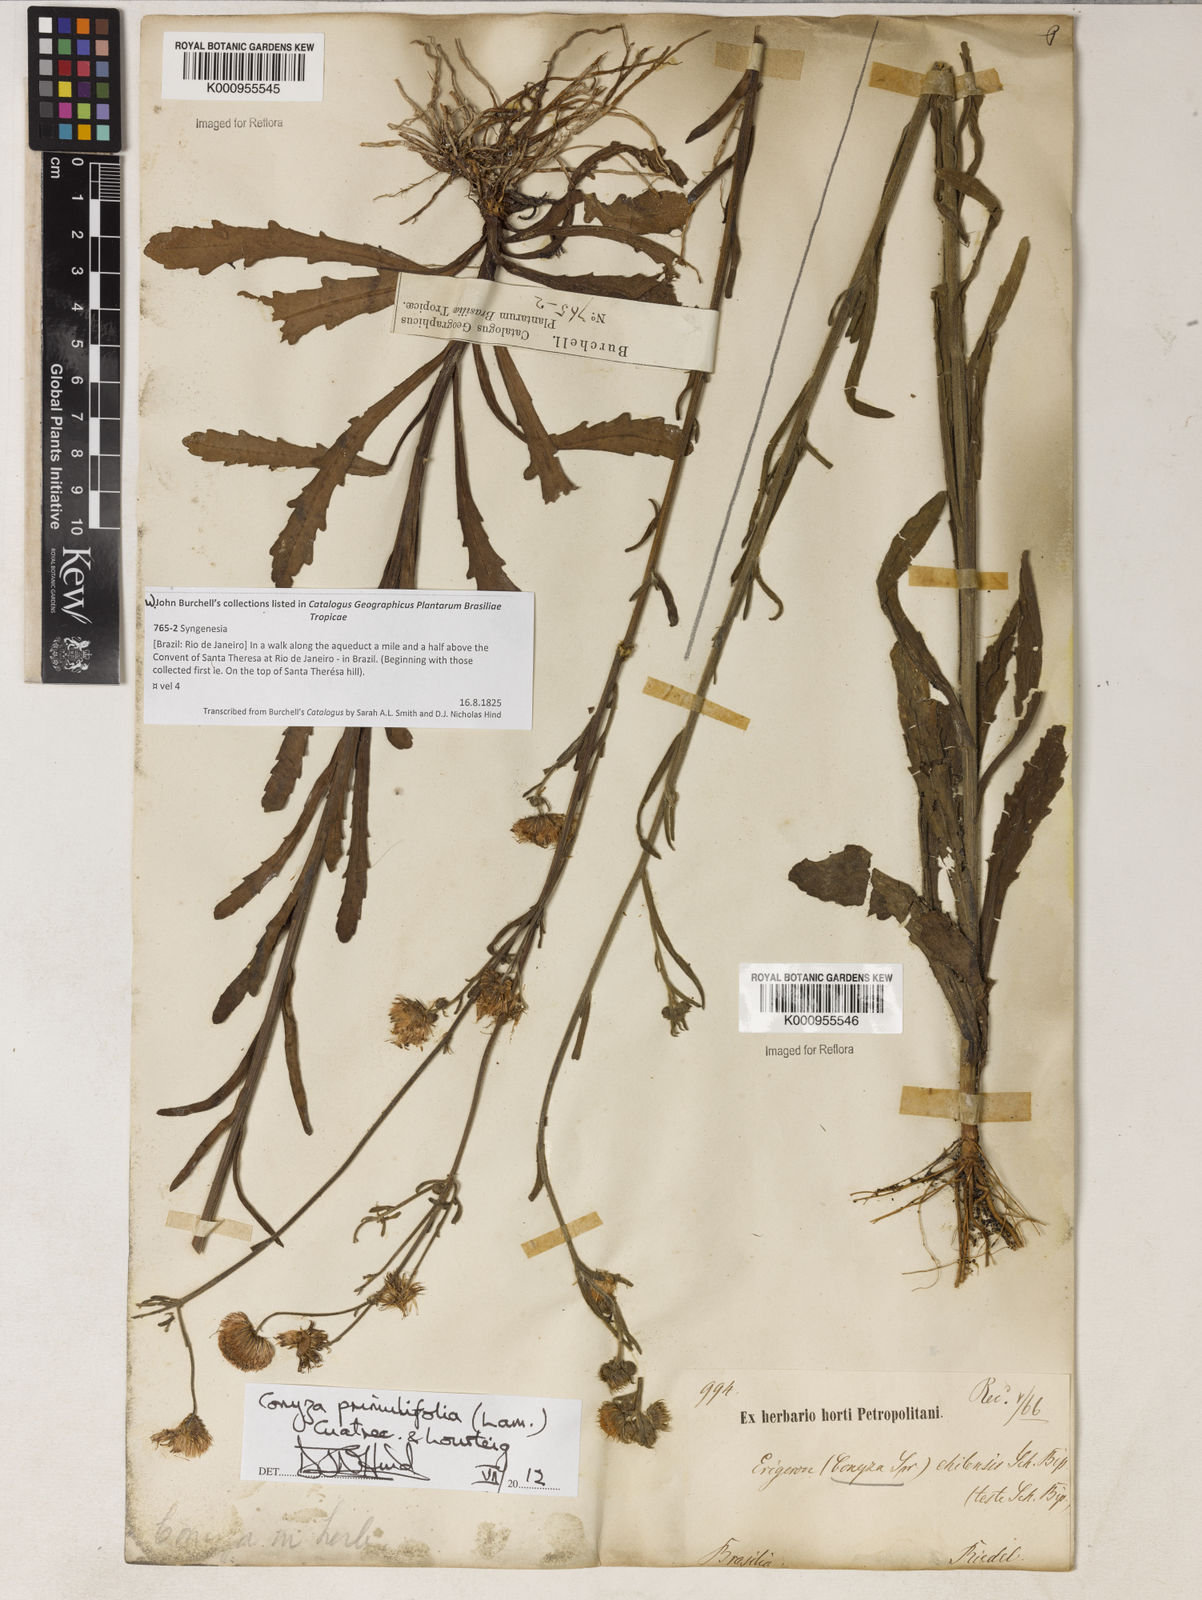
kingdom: Plantae
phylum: Tracheophyta
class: Magnoliopsida
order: Asterales
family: Asteraceae
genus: Erigeron
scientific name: Erigeron primulifolius
